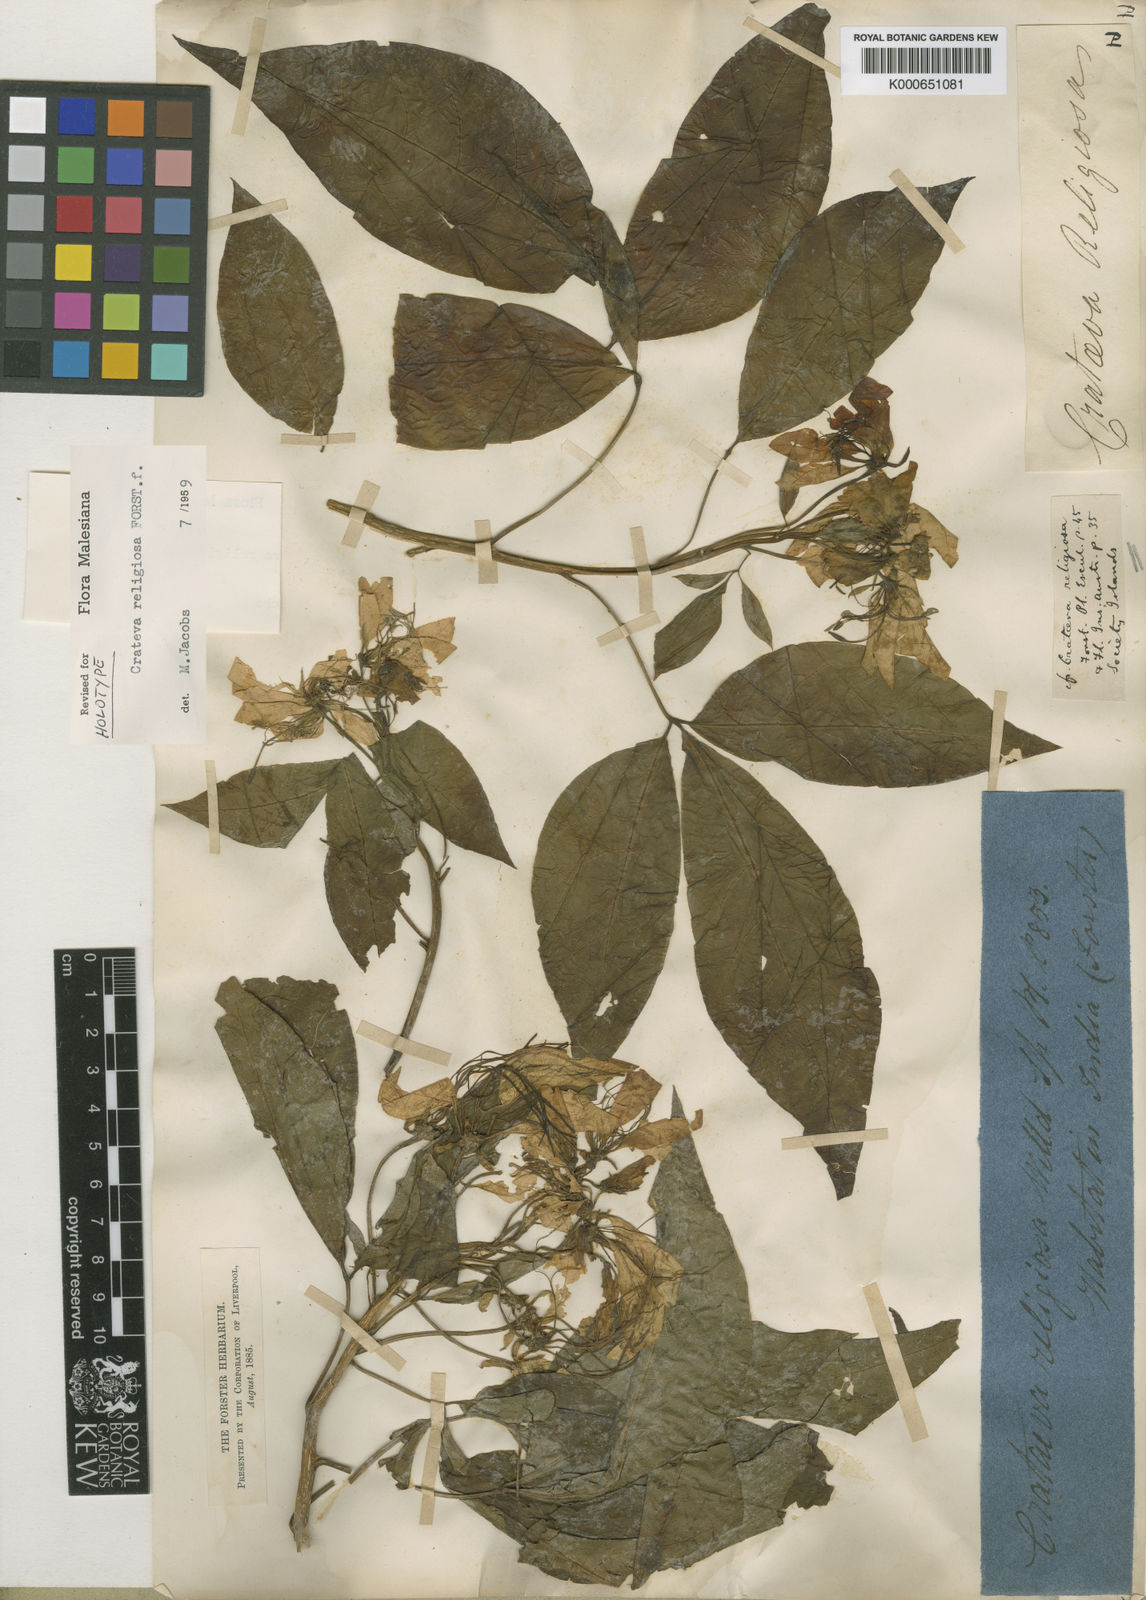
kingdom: Plantae
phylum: Tracheophyta
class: Magnoliopsida
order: Brassicales
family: Capparaceae
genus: Crateva
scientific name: Crateva religiosa
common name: March dalur
